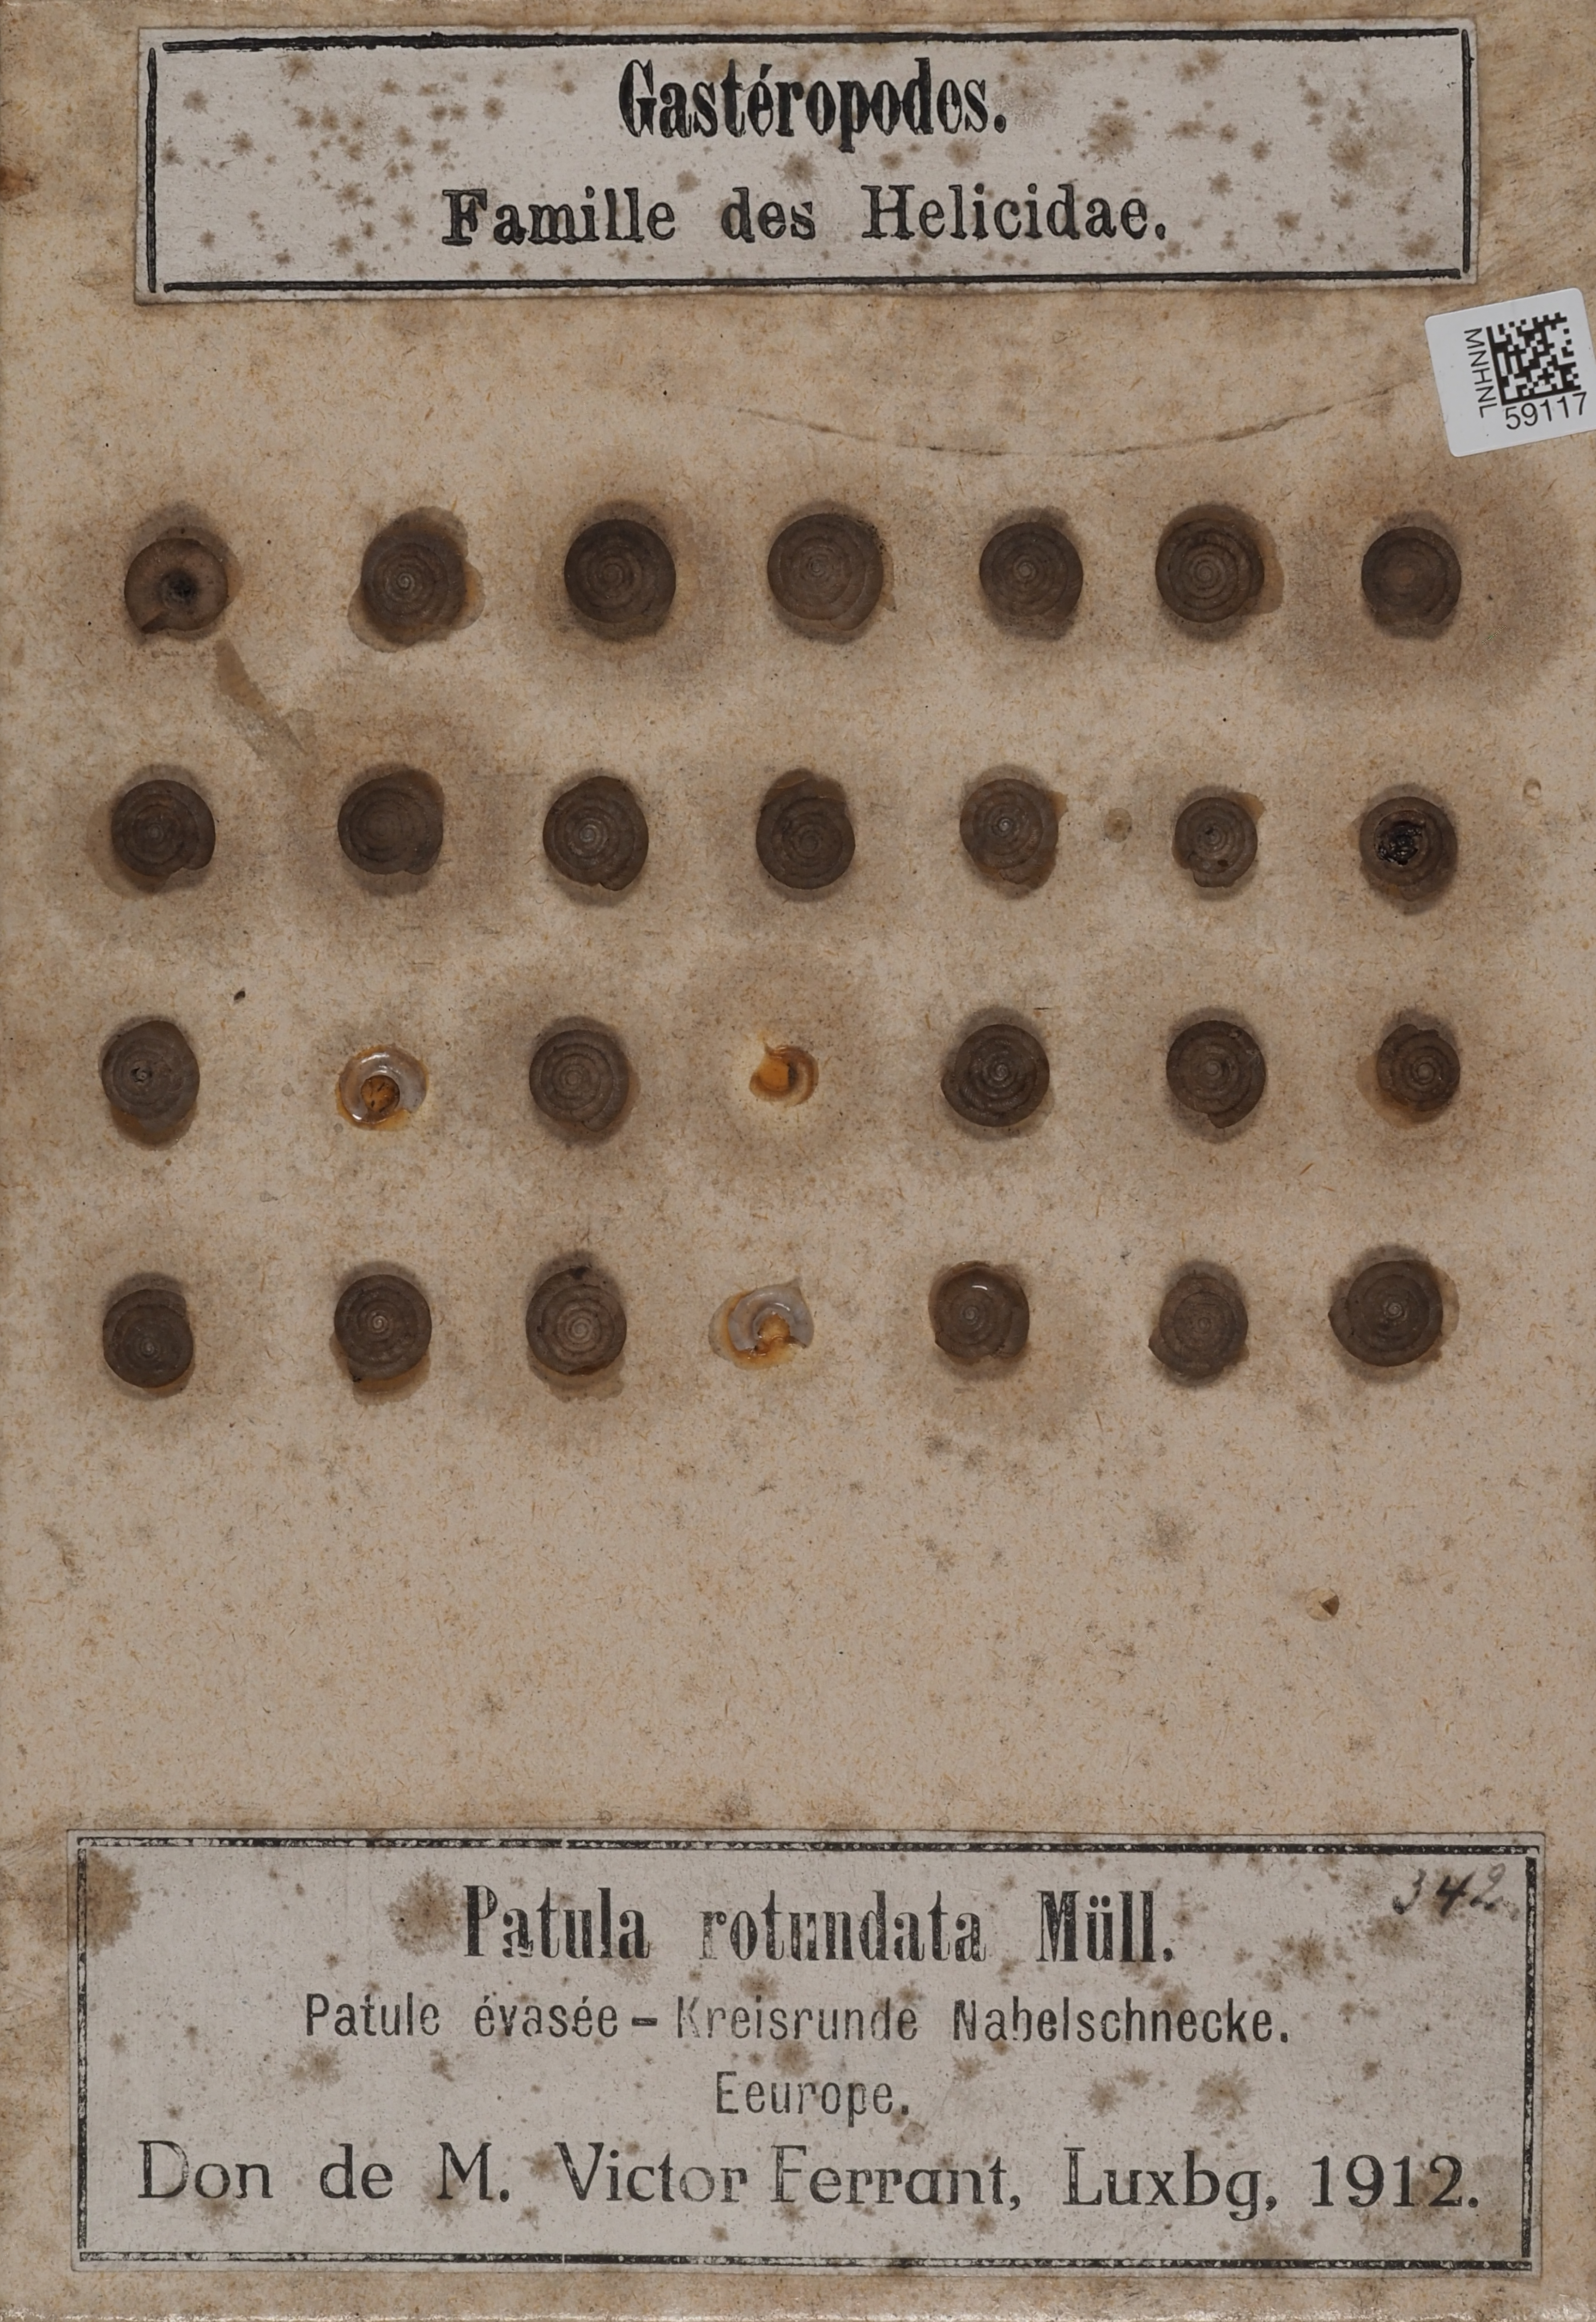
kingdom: Animalia
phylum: Mollusca
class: Gastropoda
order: Stylommatophora
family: Discidae
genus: Discus
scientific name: Discus rotundatus
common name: Rounded snail
